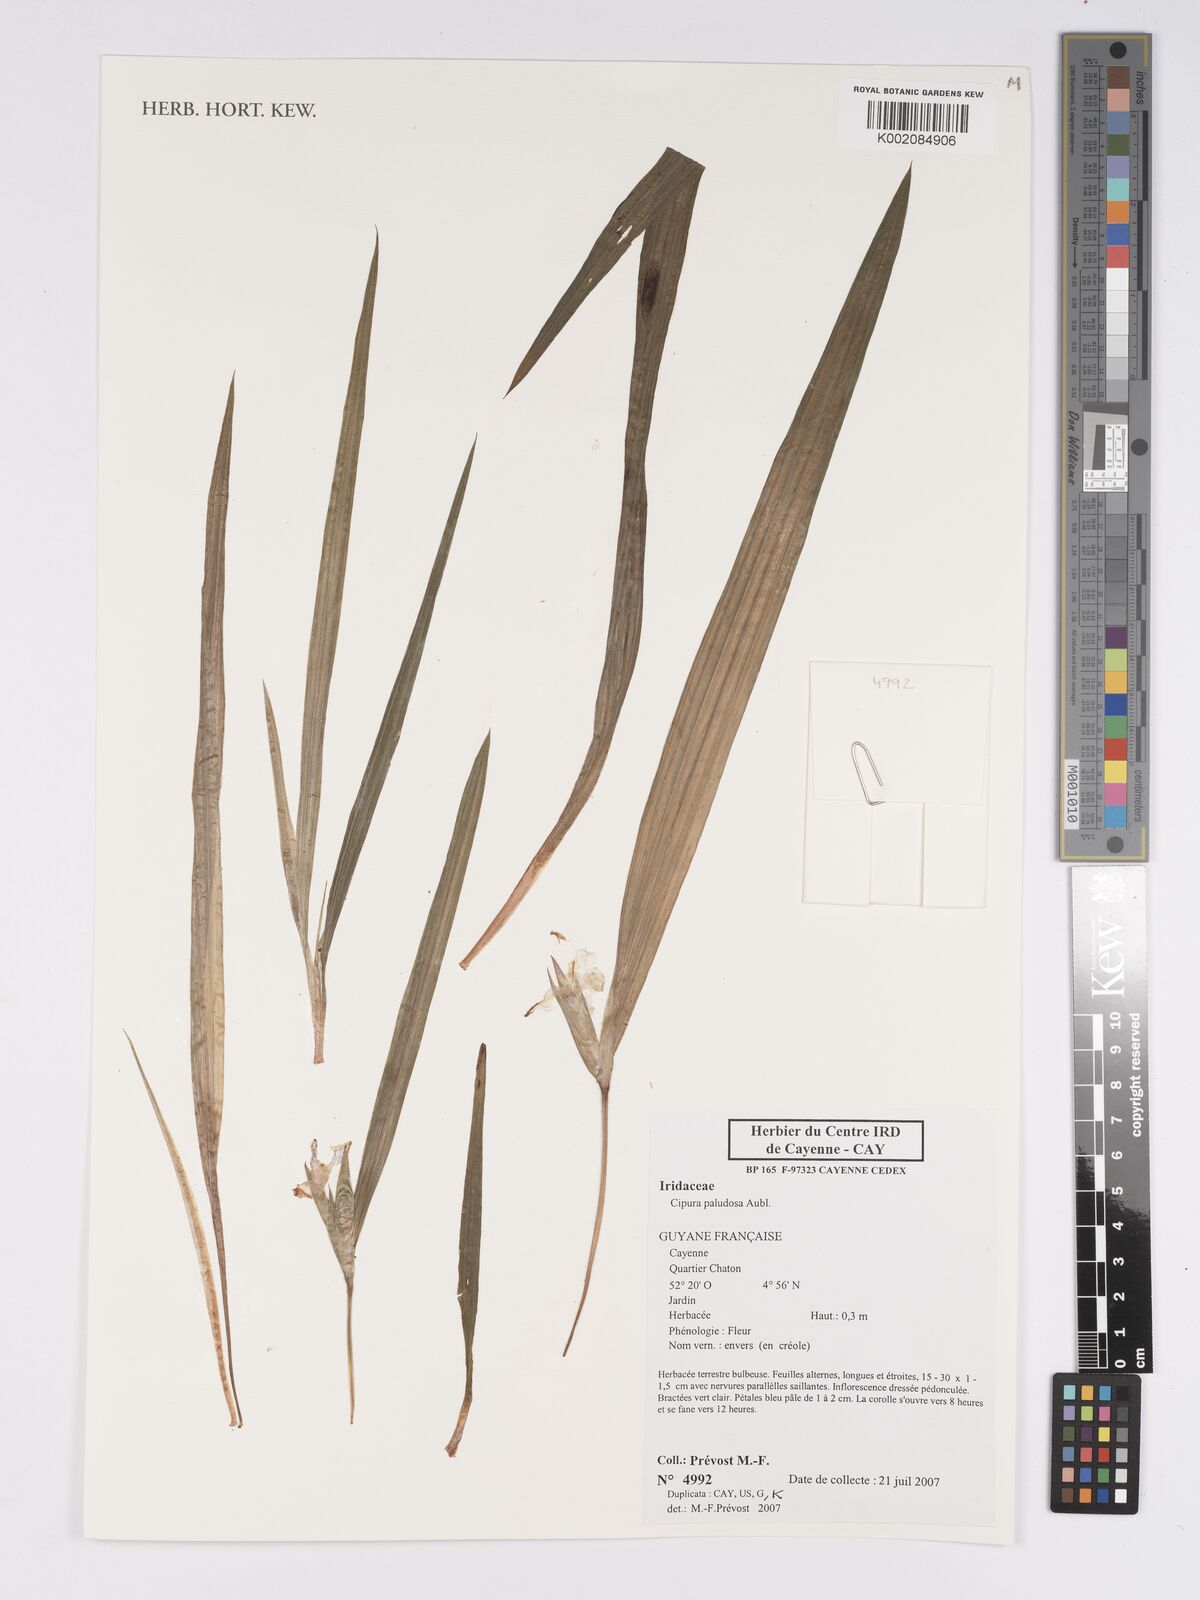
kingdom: Plantae
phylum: Tracheophyta
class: Liliopsida
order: Asparagales
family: Iridaceae
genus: Cipura
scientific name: Cipura paludosa
